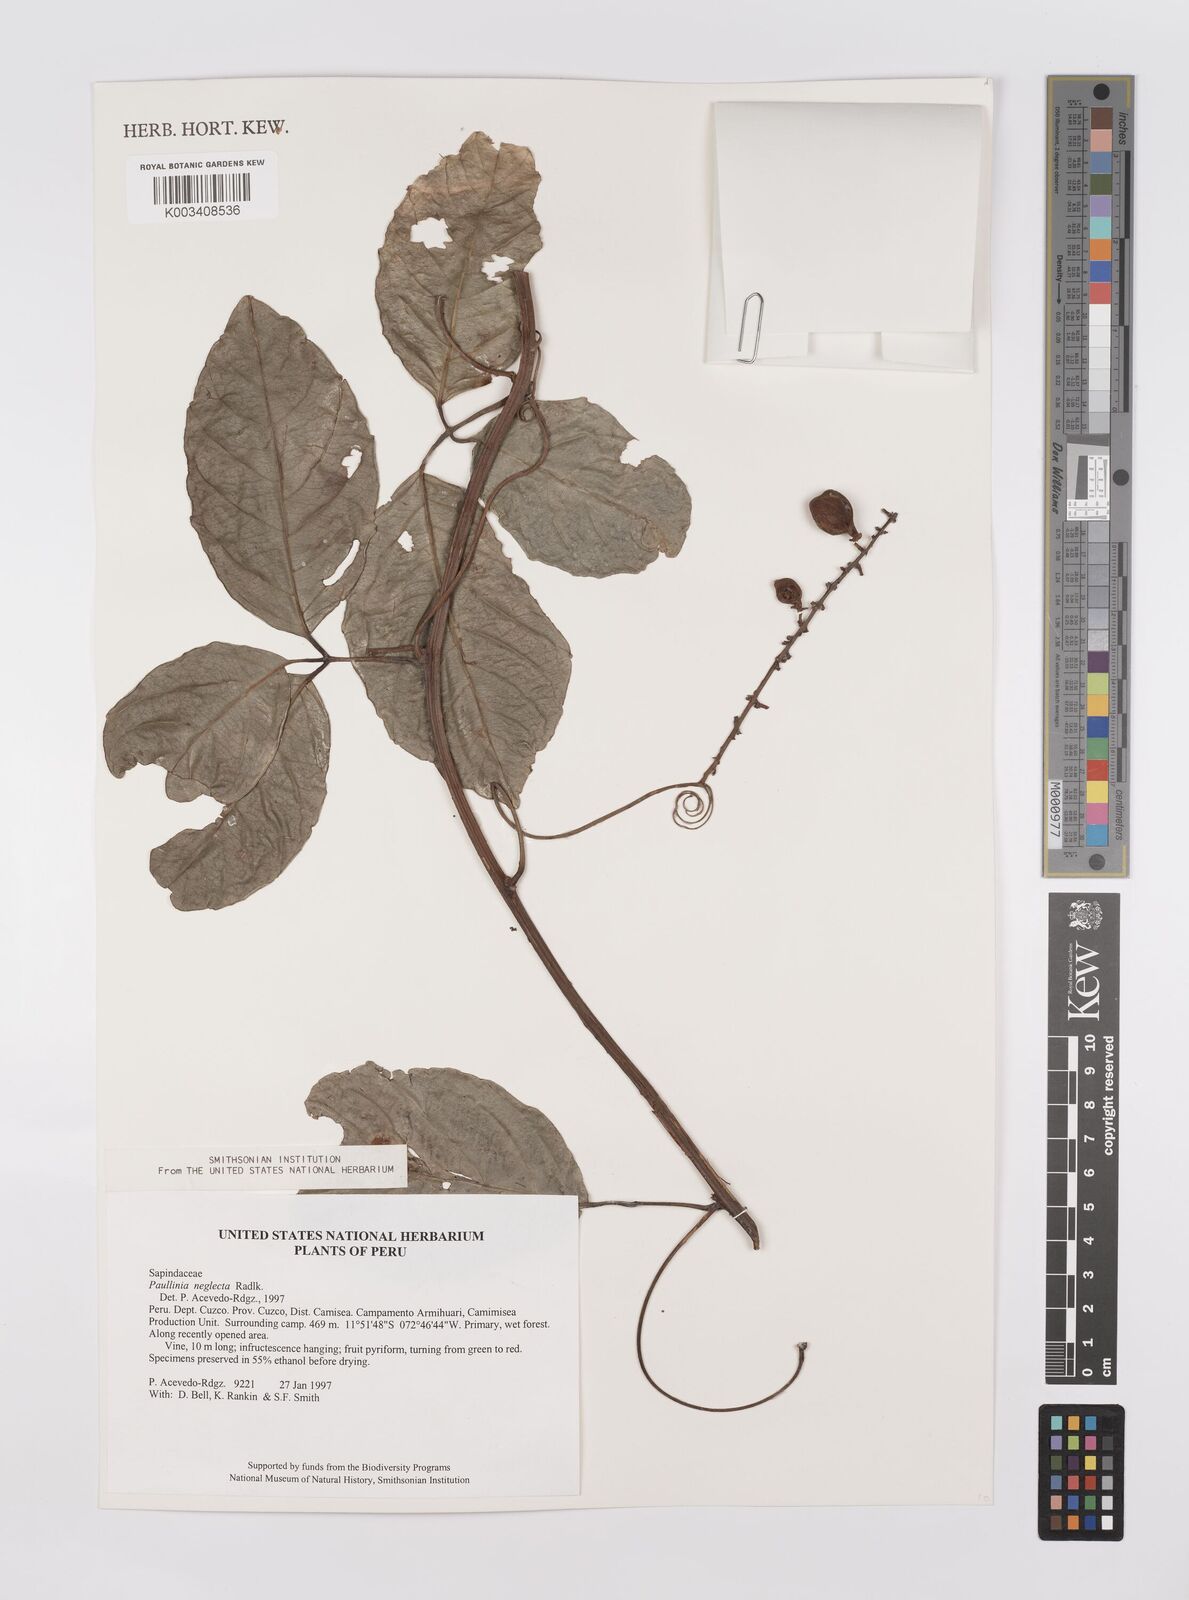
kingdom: Plantae
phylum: Tracheophyta
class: Magnoliopsida
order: Sapindales
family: Sapindaceae
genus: Paullinia
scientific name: Paullinia elegans
